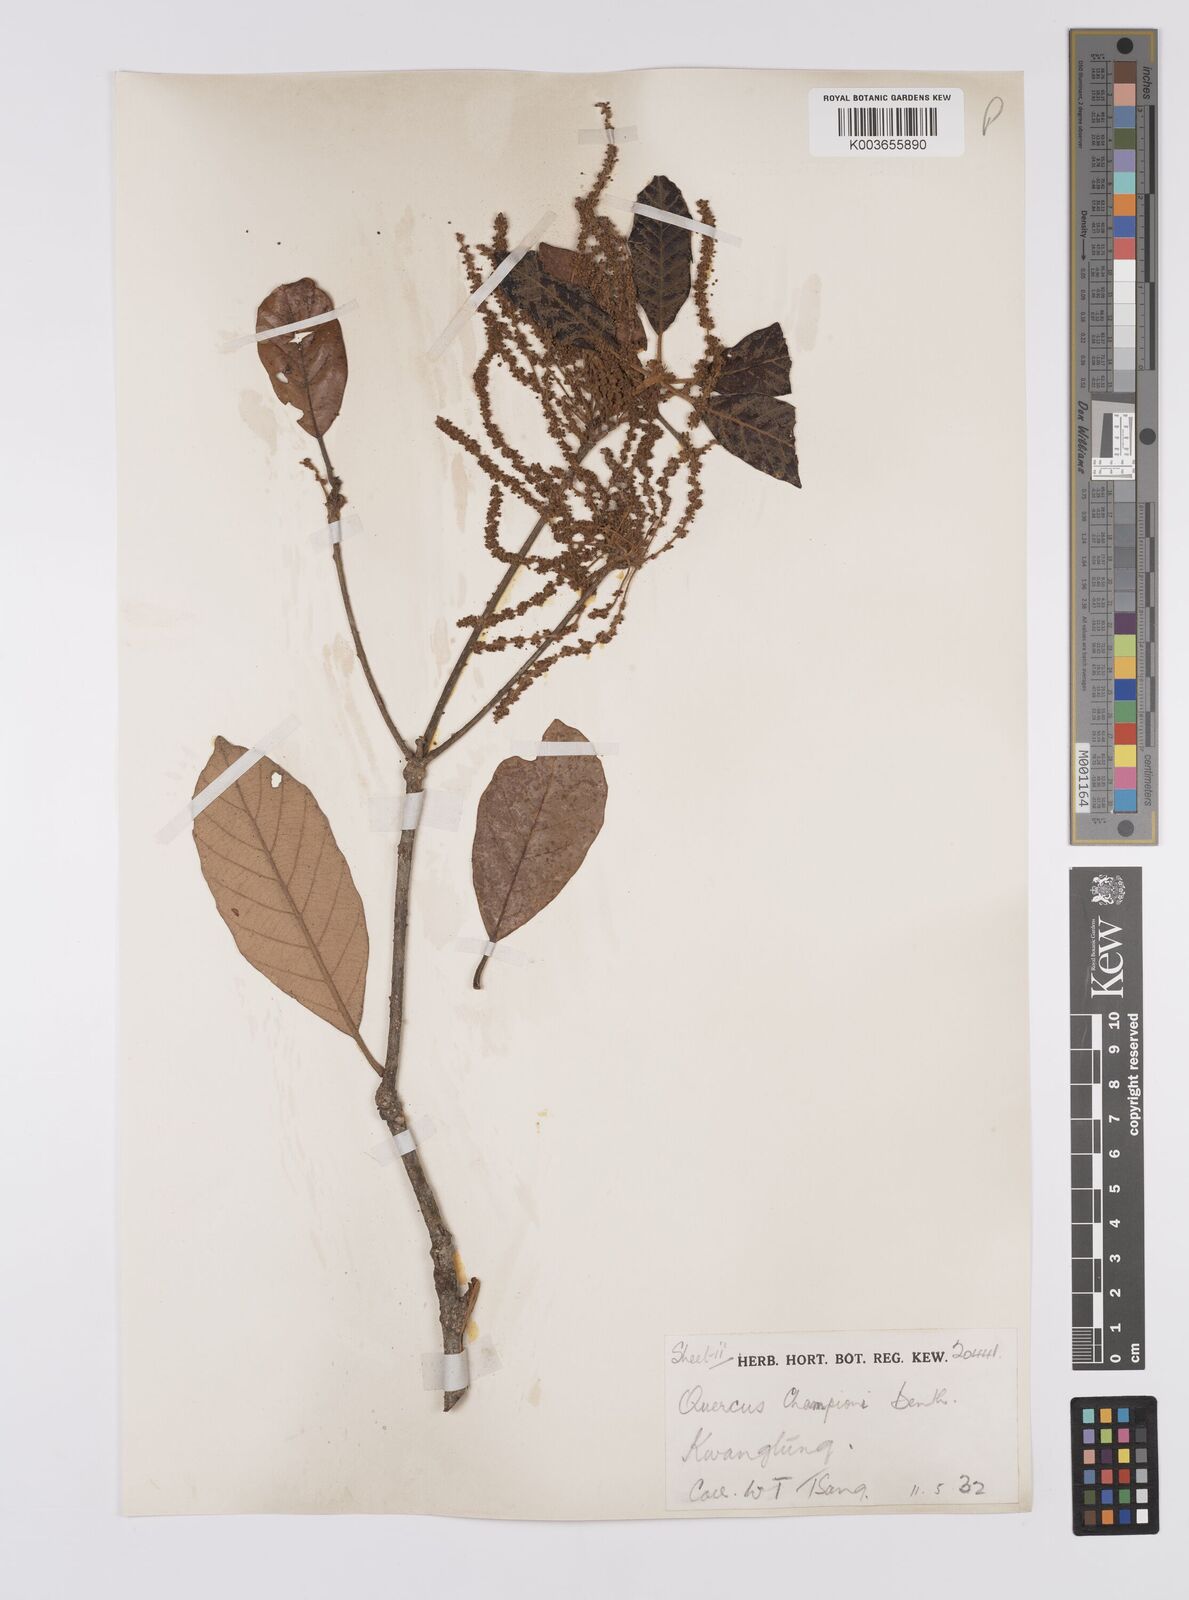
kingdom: Plantae
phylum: Tracheophyta
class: Magnoliopsida
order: Fagales
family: Fagaceae
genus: Quercus
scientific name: Quercus championii
